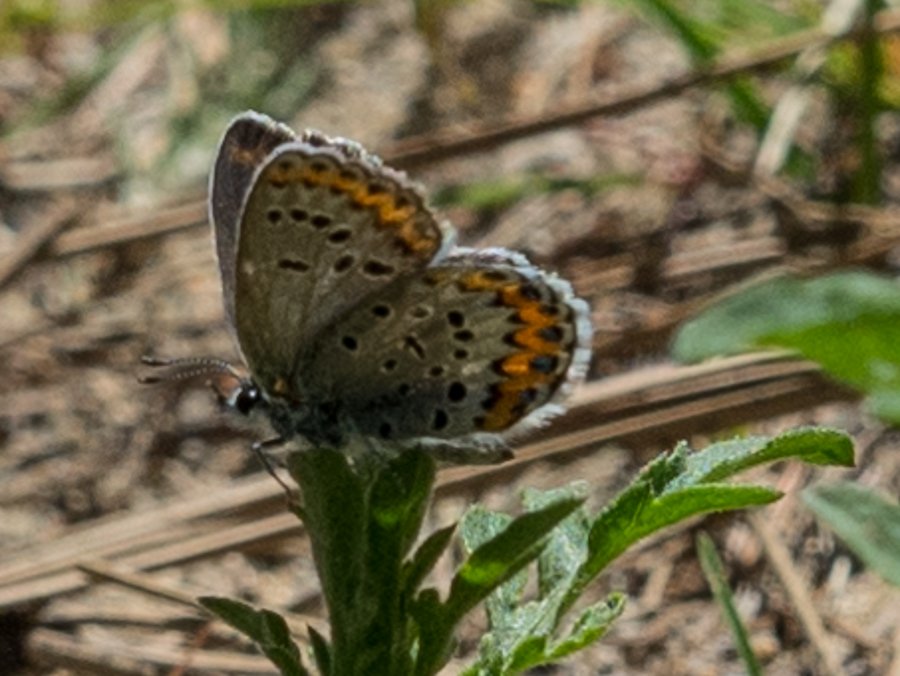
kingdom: Animalia
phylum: Arthropoda
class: Insecta
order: Lepidoptera
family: Lycaenidae
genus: Lycaeides
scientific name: Lycaeides melissa
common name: Melissa Blue
